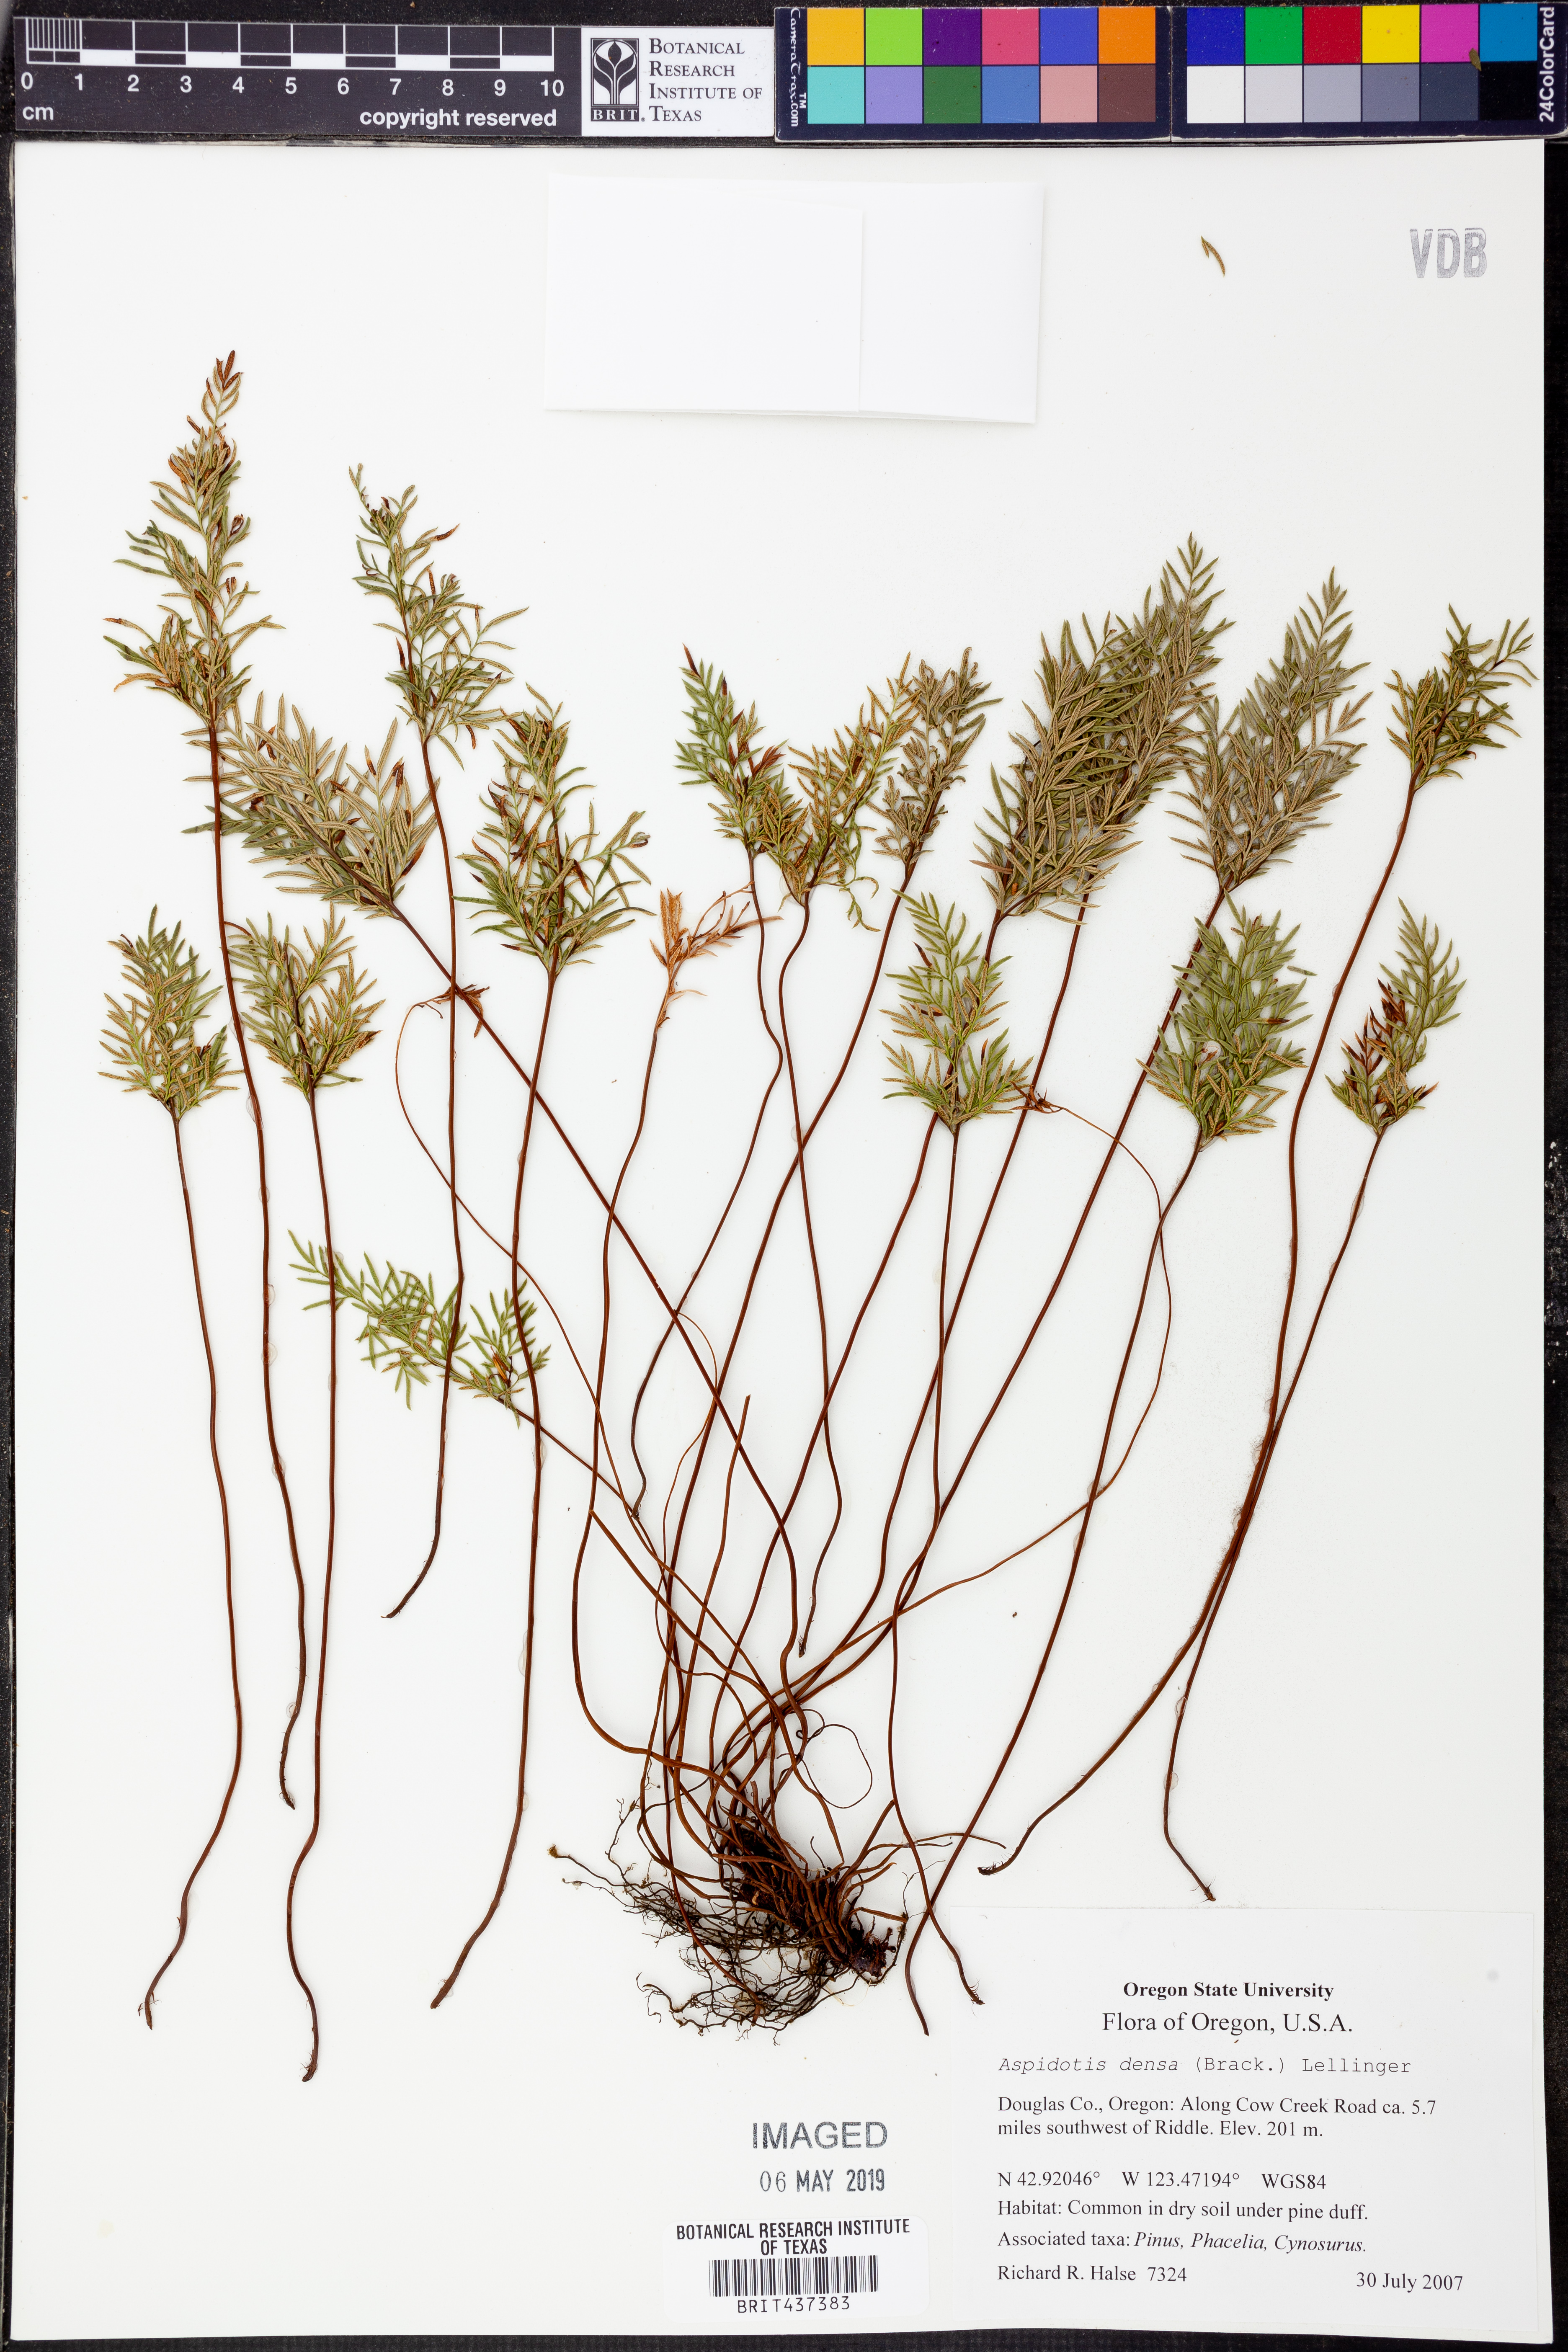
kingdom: Plantae
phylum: Tracheophyta
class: Polypodiopsida
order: Polypodiales
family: Pteridaceae
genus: Aspidotis
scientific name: Aspidotis densa
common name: Indian's dream
